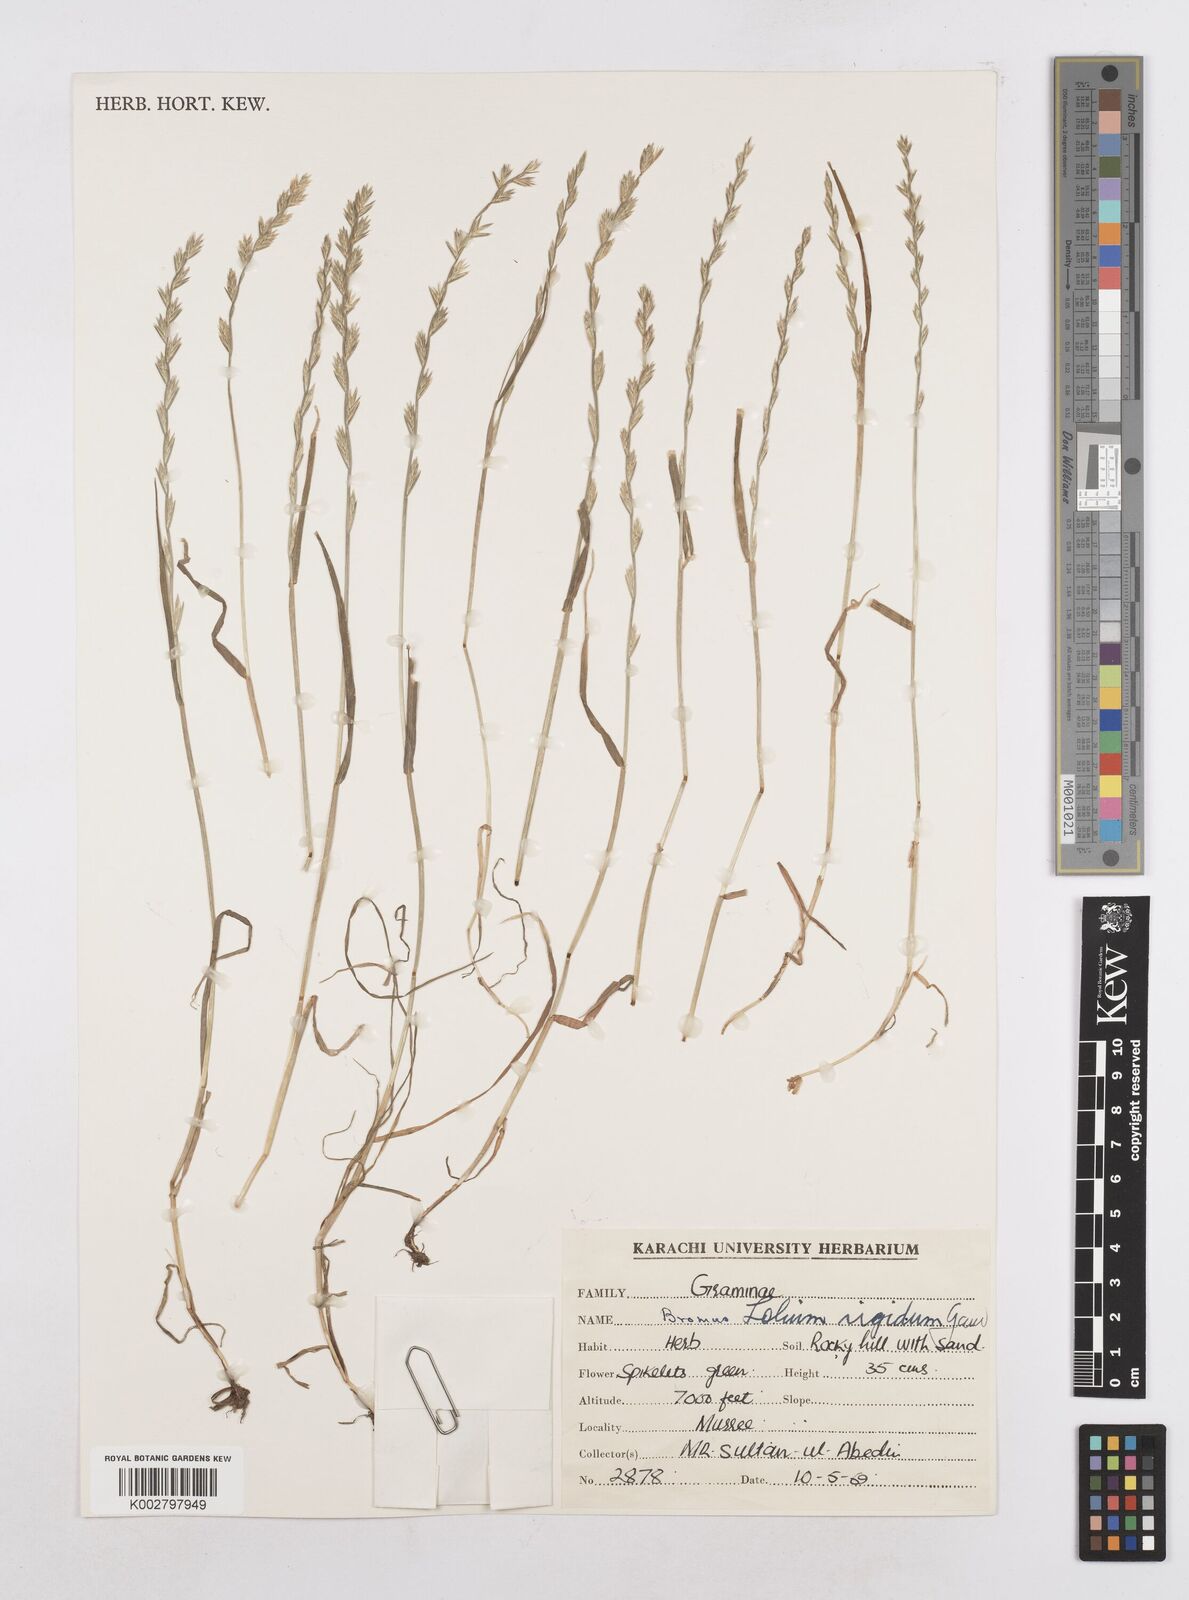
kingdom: Plantae
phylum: Tracheophyta
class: Liliopsida
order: Poales
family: Poaceae
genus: Lolium
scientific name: Lolium rigidum
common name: Wimmera ryegrass
